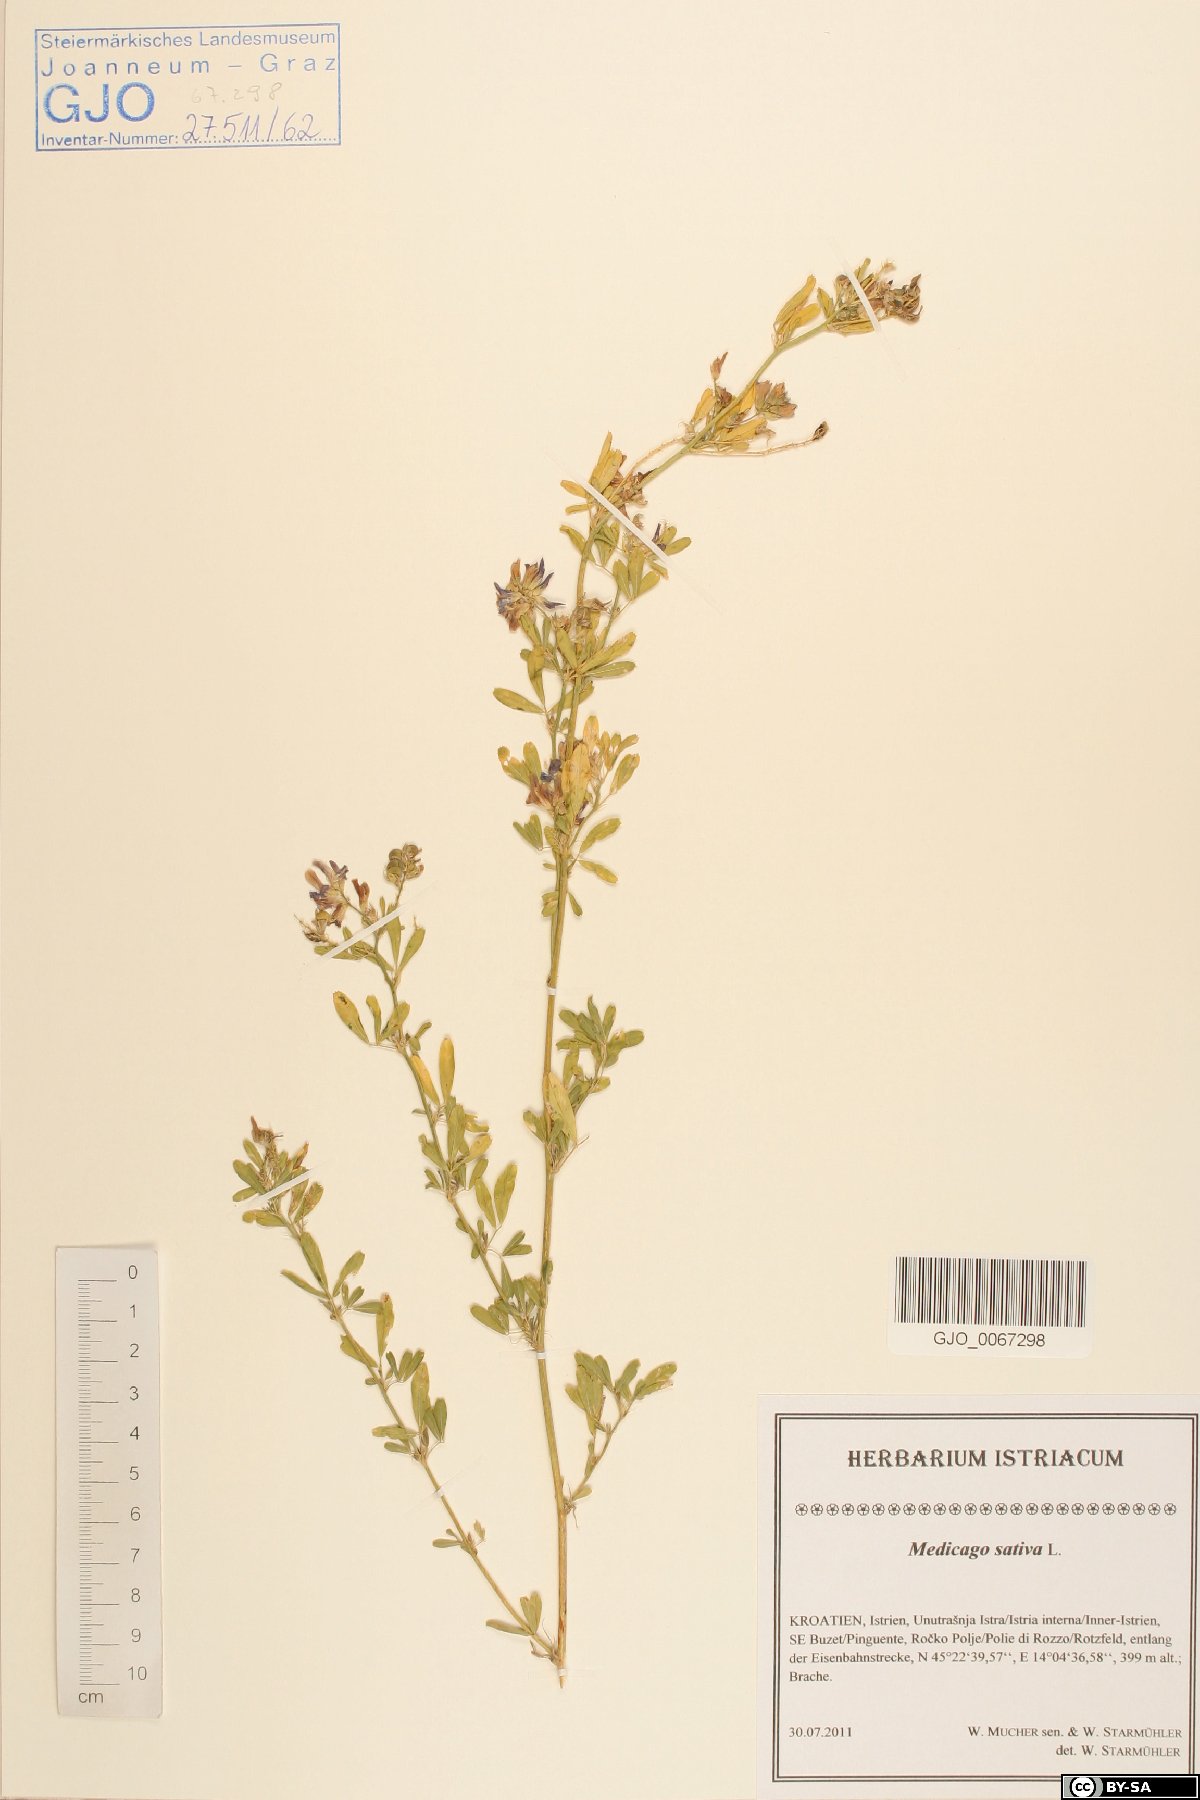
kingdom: Plantae
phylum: Tracheophyta
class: Magnoliopsida
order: Fabales
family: Fabaceae
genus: Medicago
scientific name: Medicago sativa
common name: Alfalfa
